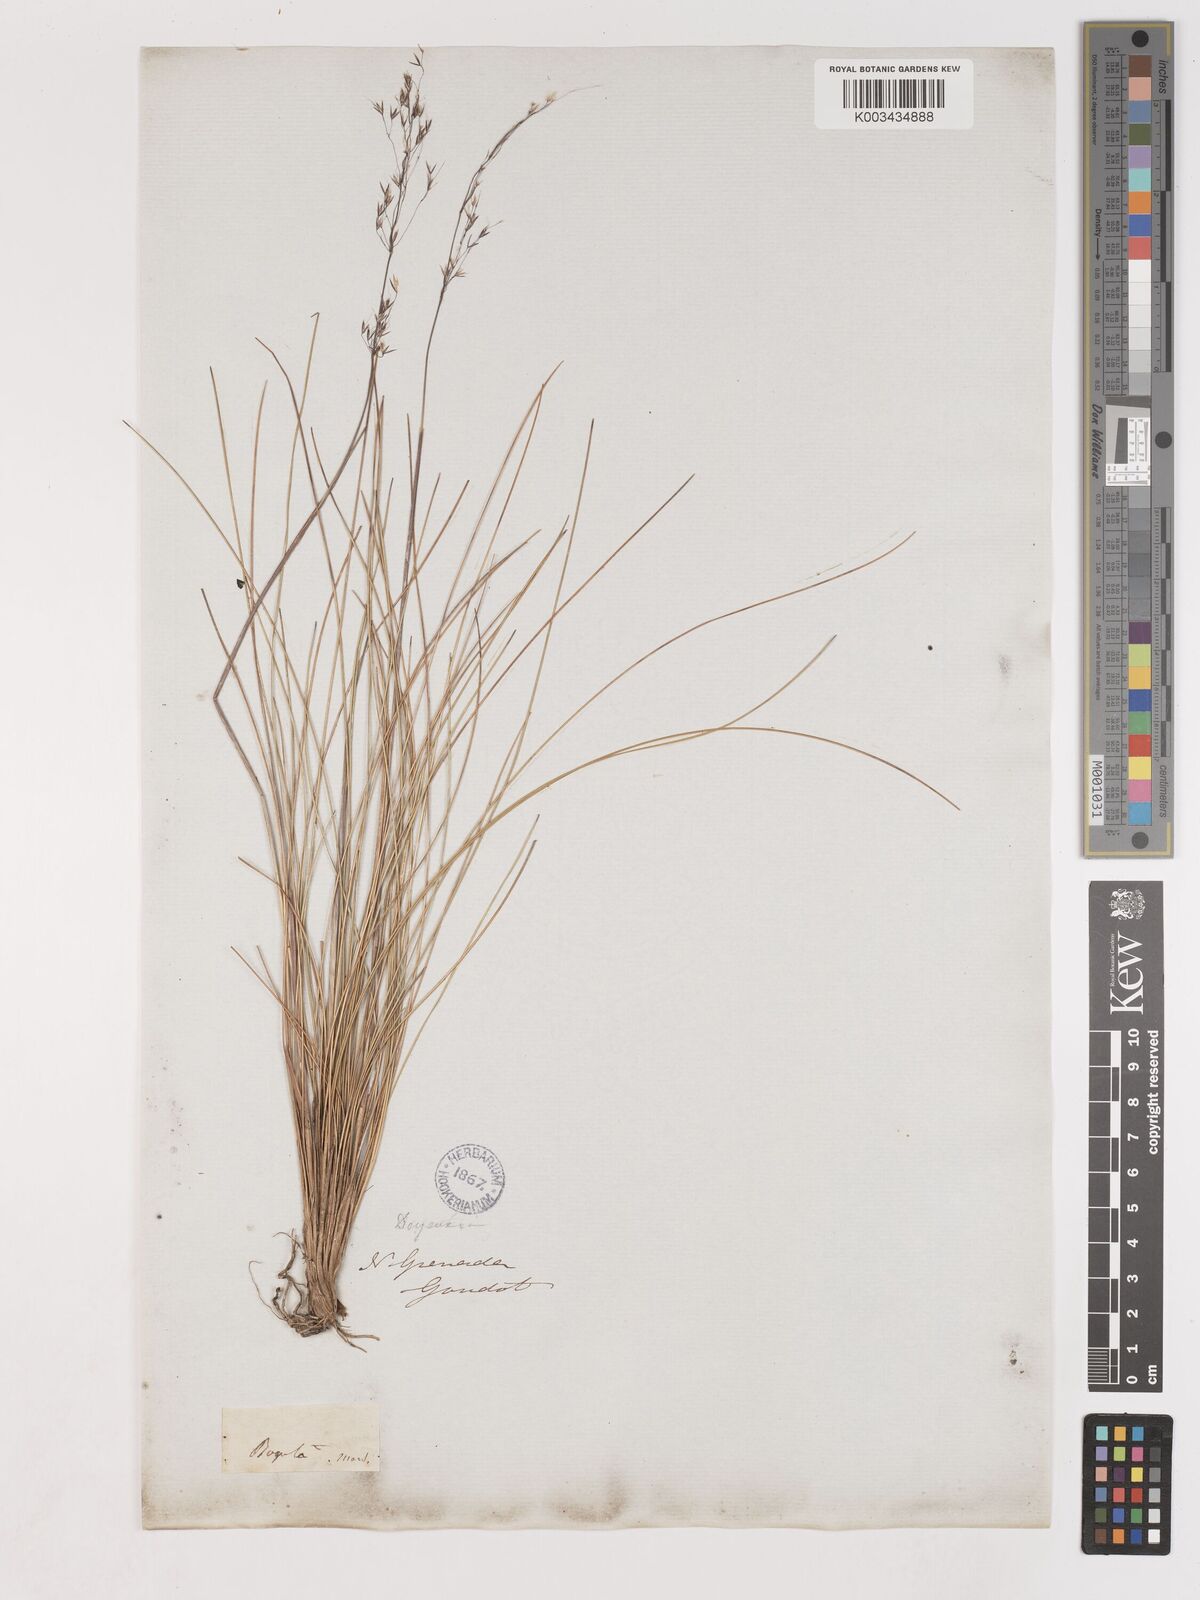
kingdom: Plantae
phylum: Tracheophyta
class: Liliopsida
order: Poales
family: Poaceae
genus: Calamagrostis
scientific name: Calamagrostis spruceana
